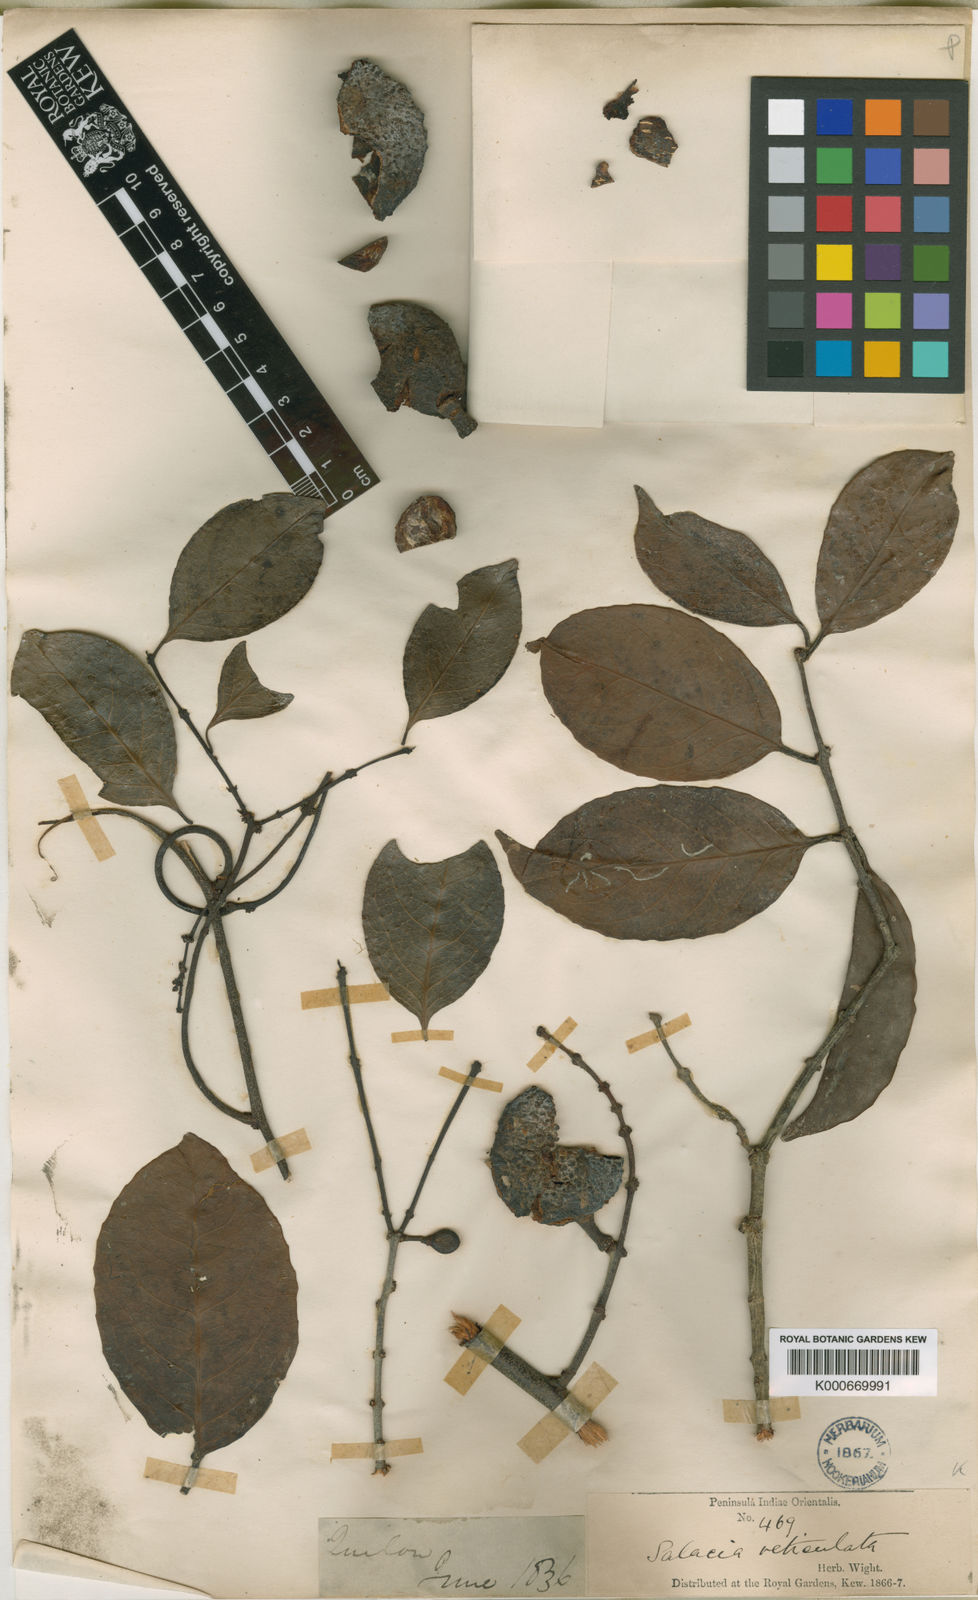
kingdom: Plantae
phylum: Tracheophyta
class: Magnoliopsida
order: Celastrales
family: Celastraceae
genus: Salacia
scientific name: Salacia reticulata
